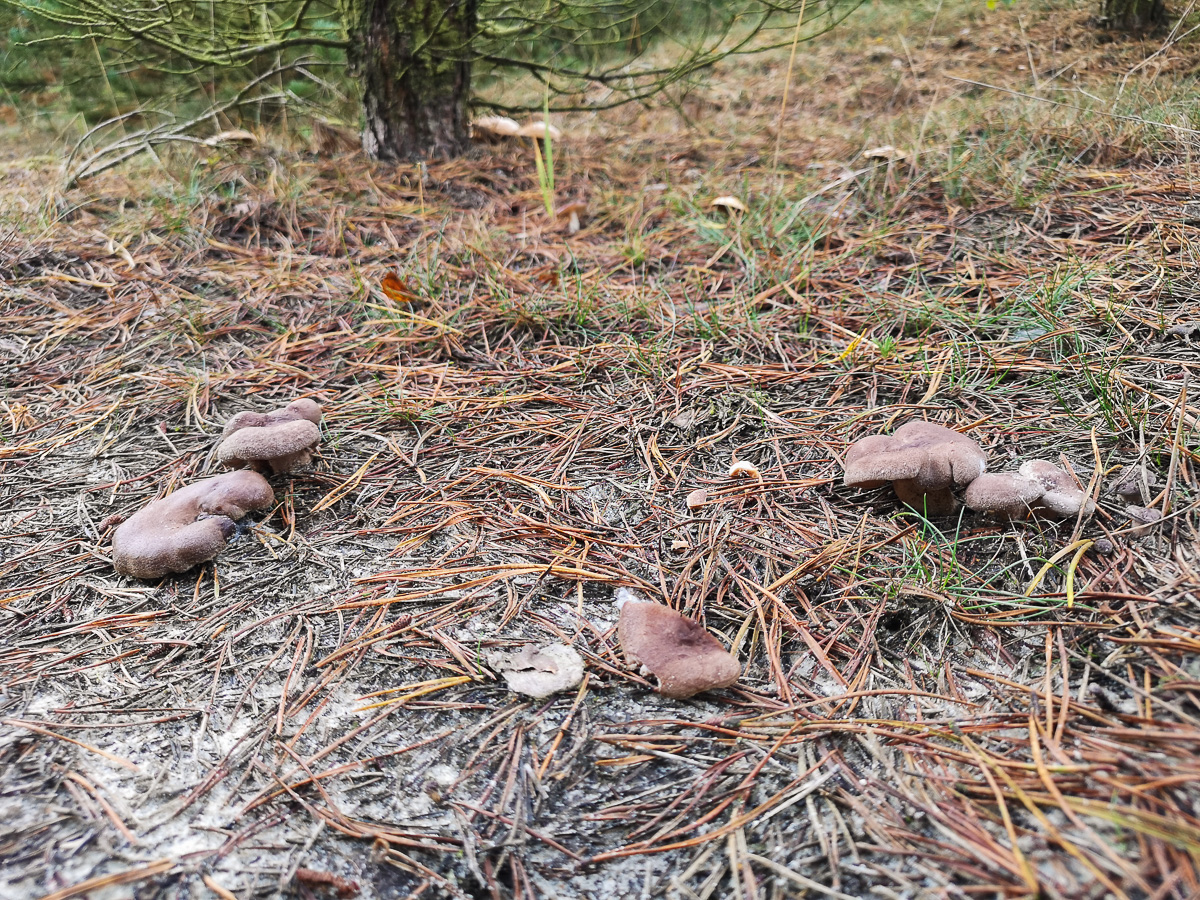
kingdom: Fungi
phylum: Basidiomycota
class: Agaricomycetes
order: Russulales
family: Russulaceae
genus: Lactarius
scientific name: Lactarius mammosus
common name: kokosbrun mælkehat
